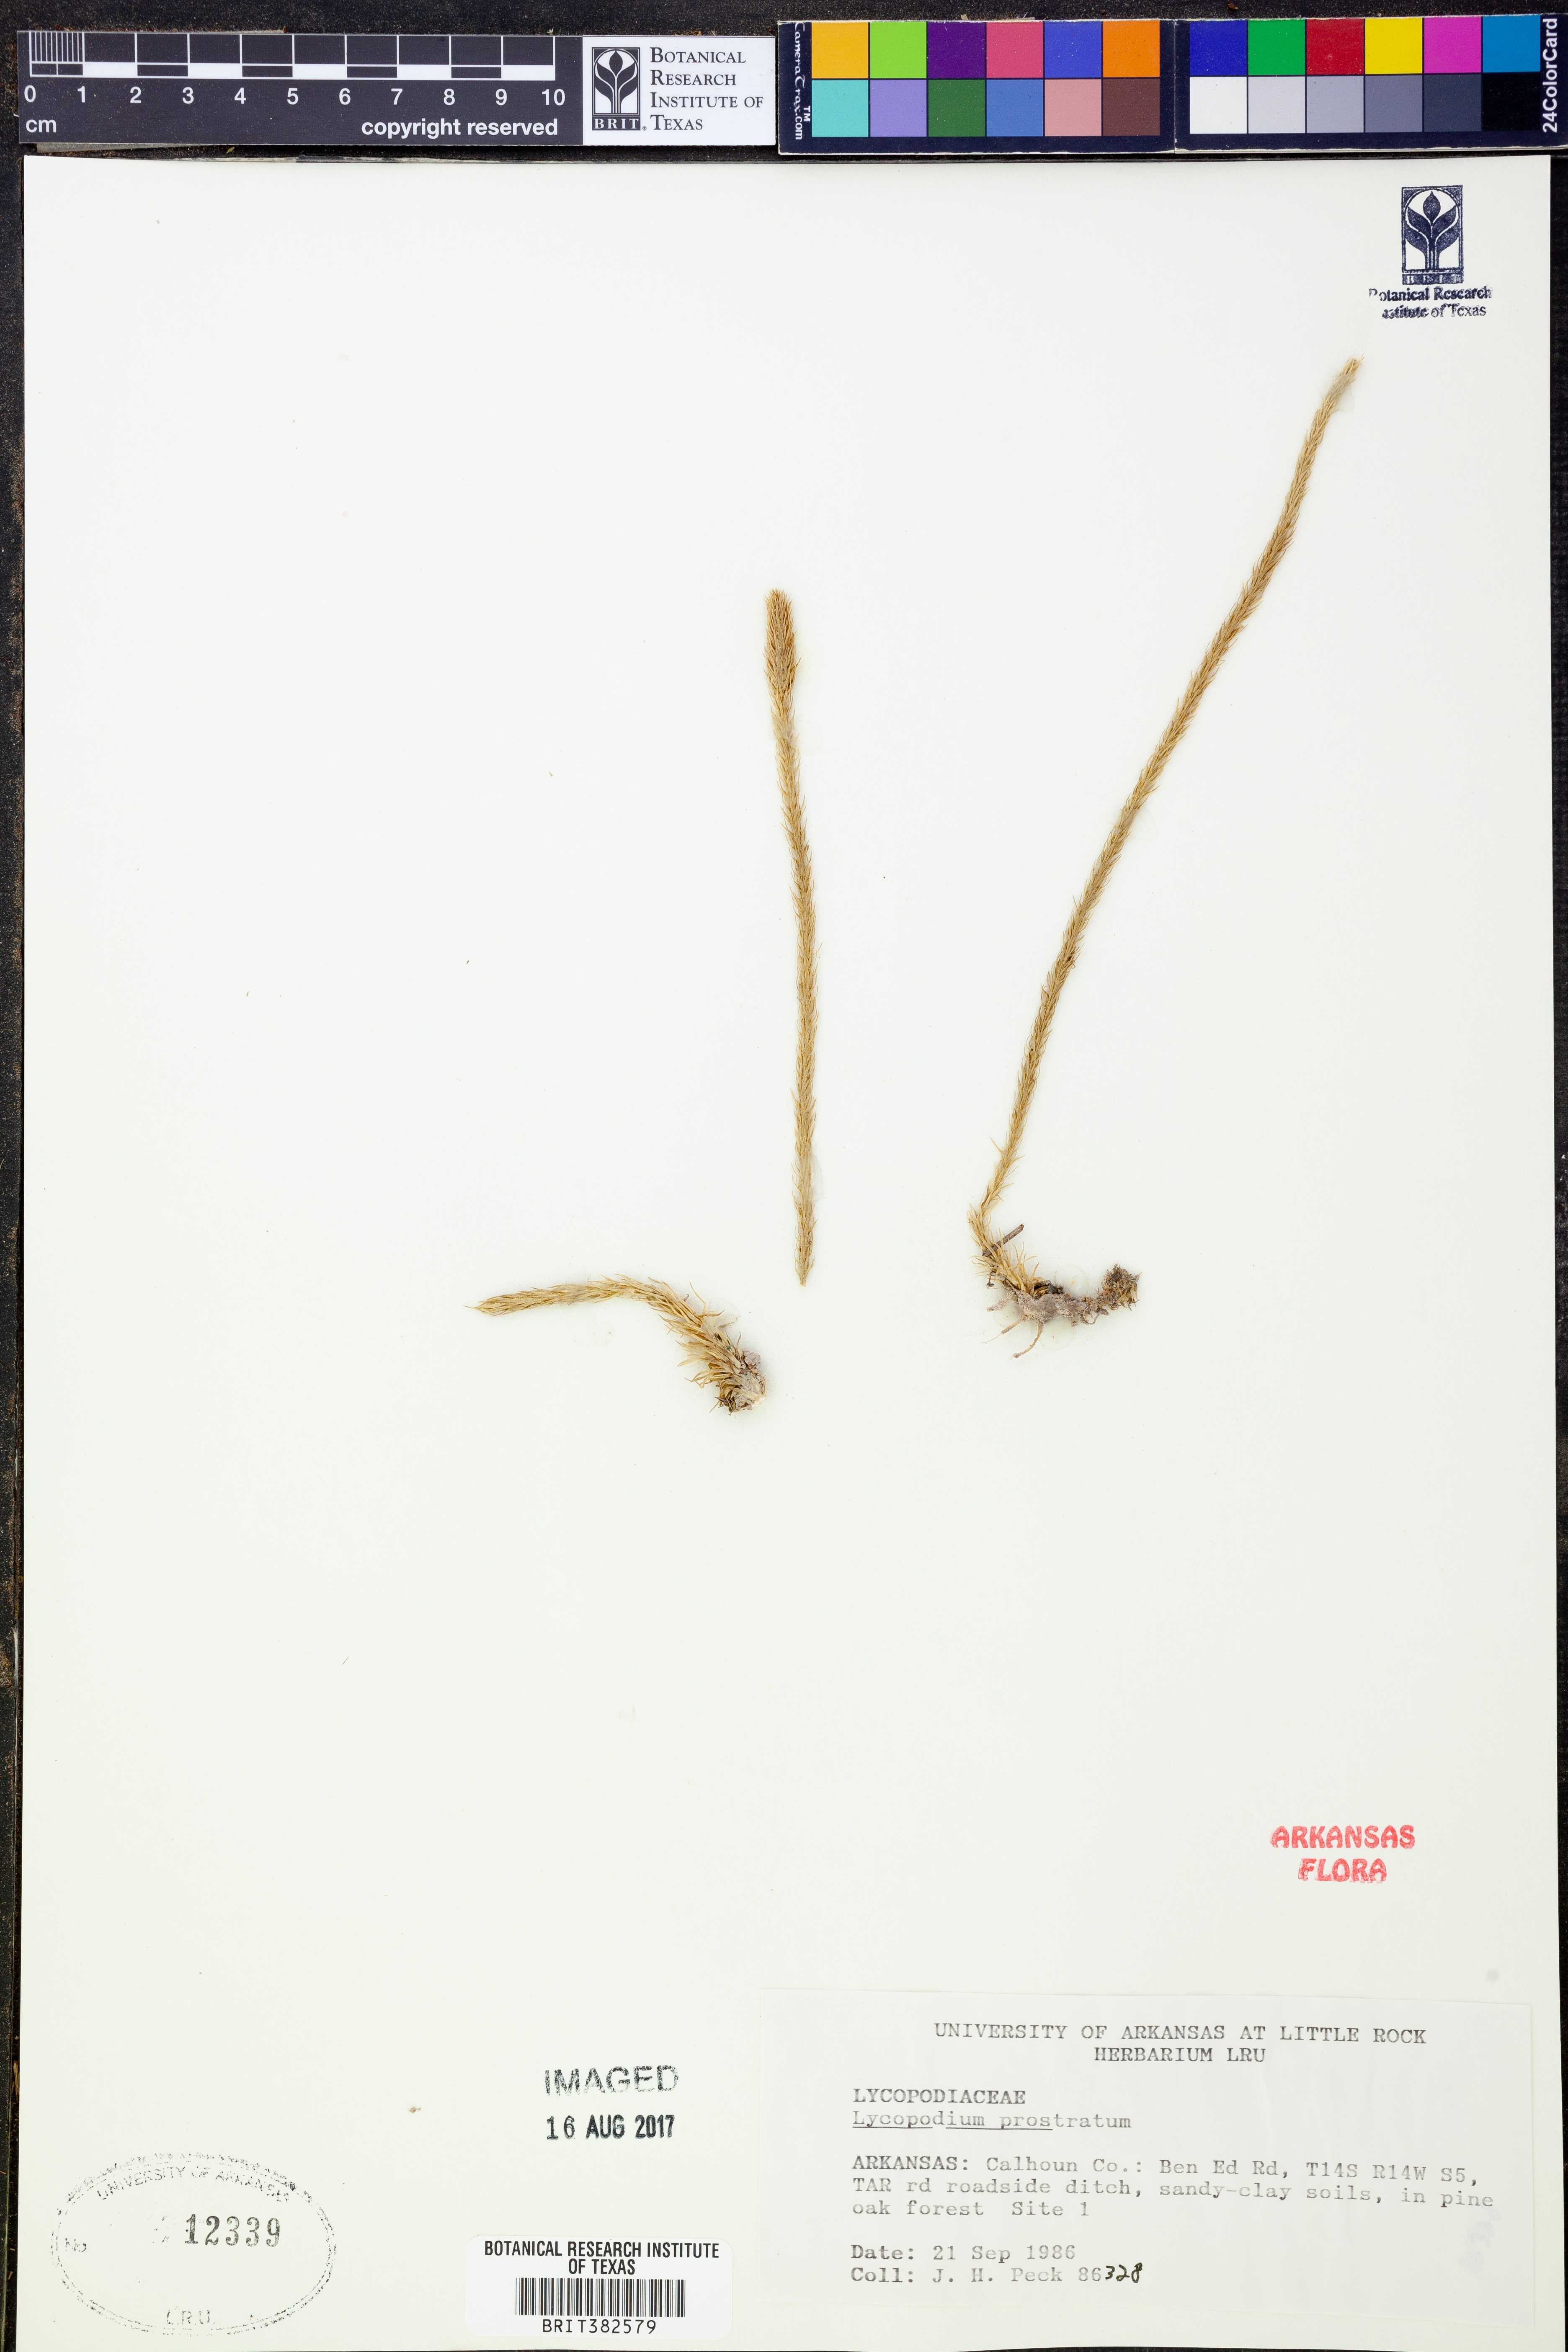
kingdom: Plantae
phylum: Tracheophyta
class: Lycopodiopsida
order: Lycopodiales
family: Lycopodiaceae
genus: Lycopodiella
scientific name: Lycopodiella prostrata
